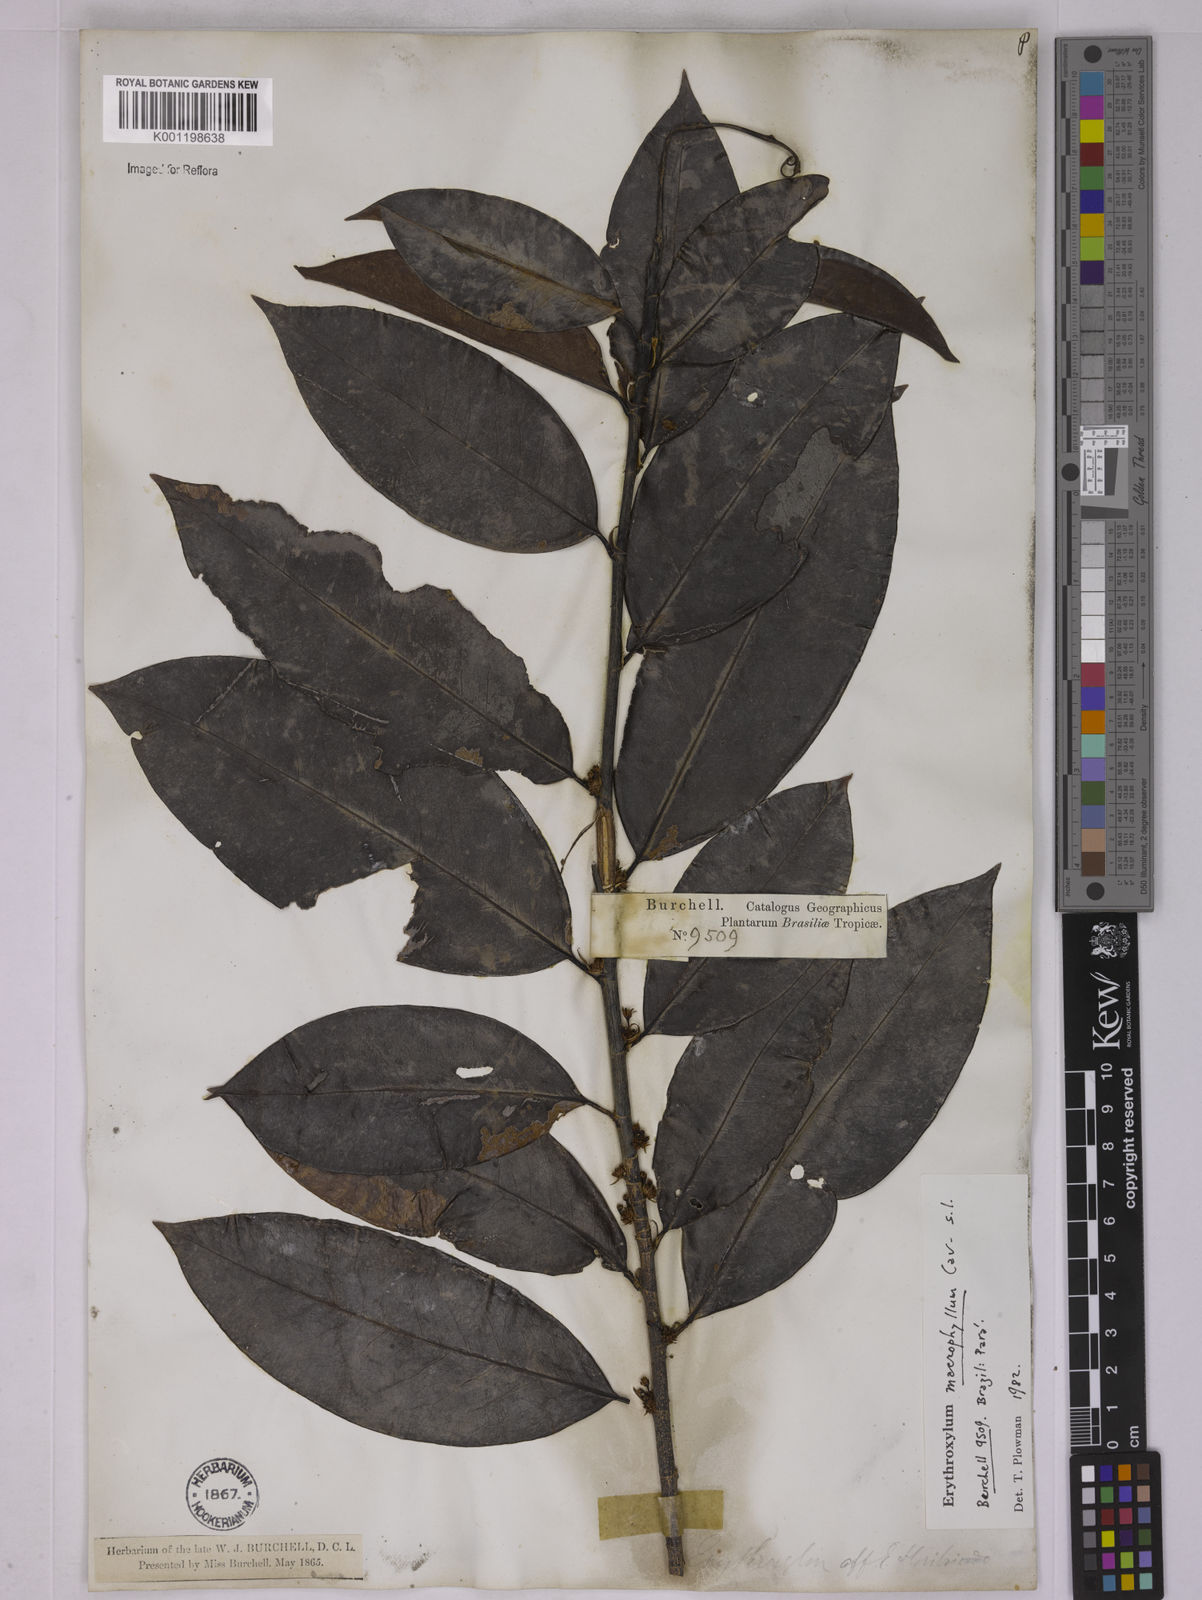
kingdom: Plantae
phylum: Tracheophyta
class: Magnoliopsida
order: Malpighiales
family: Erythroxylaceae
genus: Erythroxylum
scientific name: Erythroxylum macrophyllum
